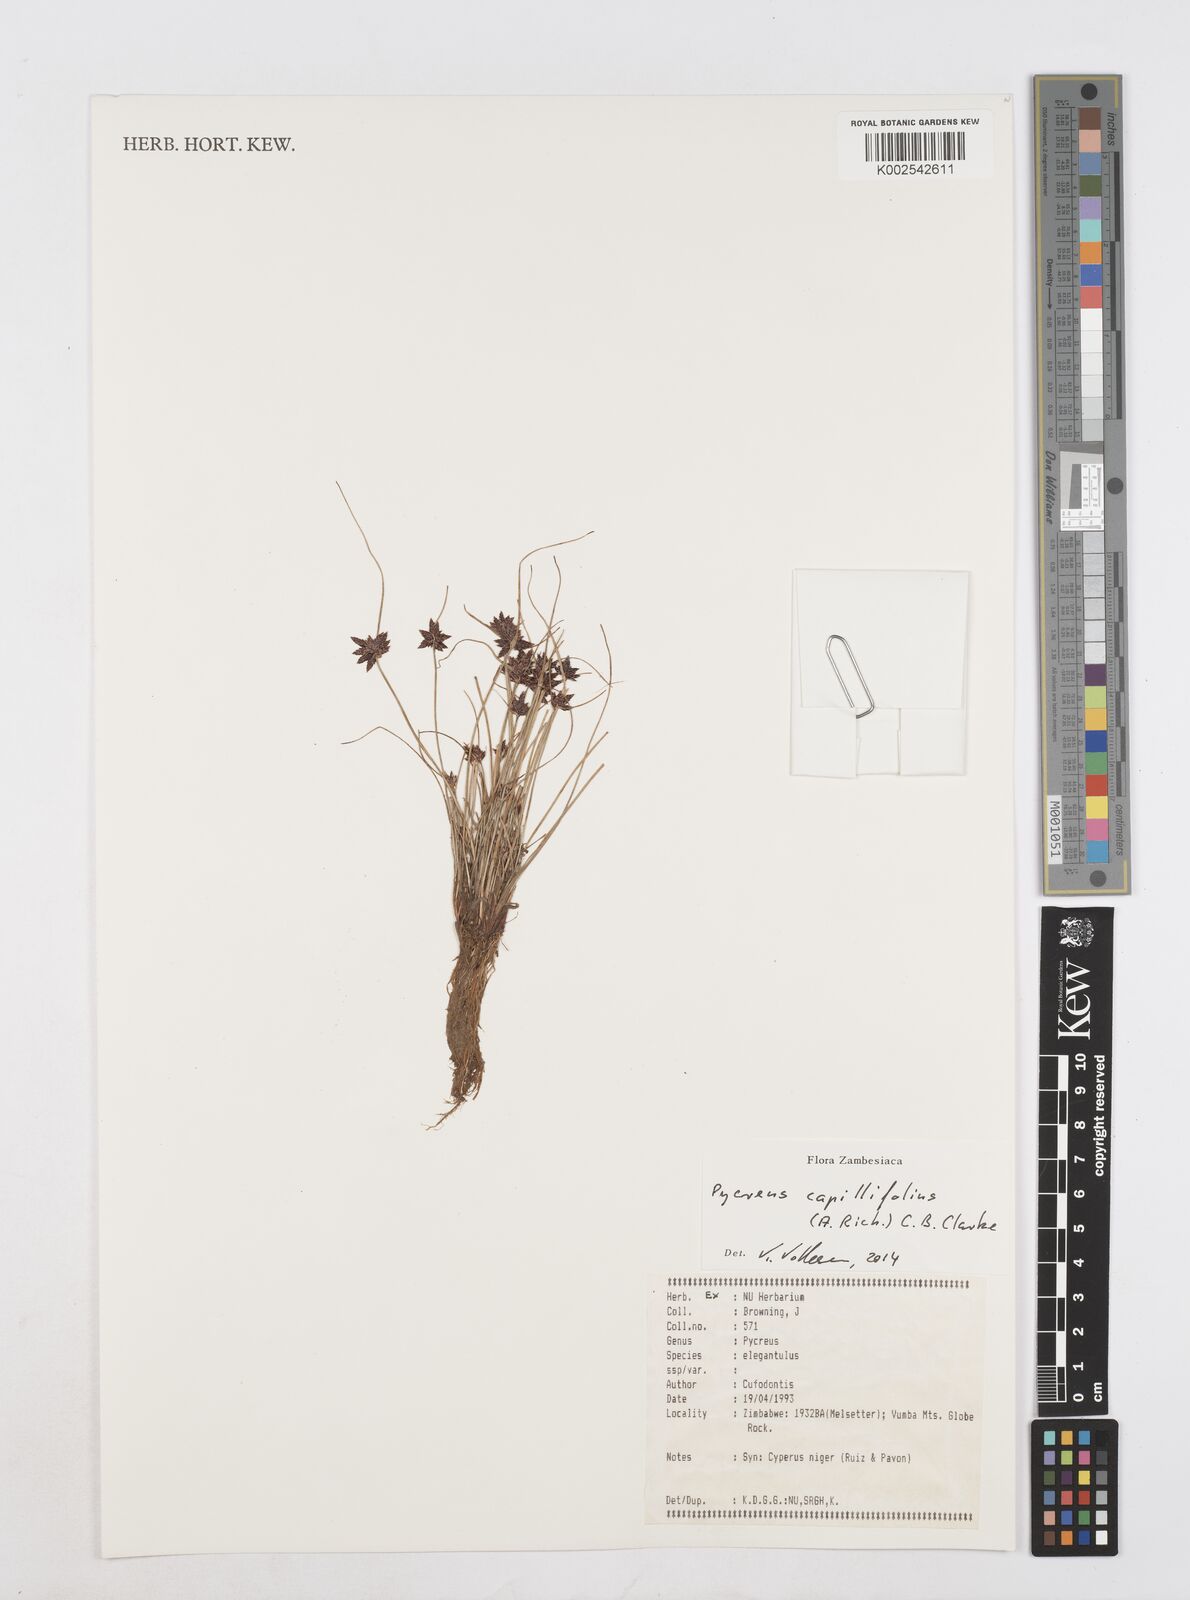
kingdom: Plantae
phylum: Tracheophyta
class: Liliopsida
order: Poales
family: Cyperaceae
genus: Cyperus
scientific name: Cyperus capillifolius
